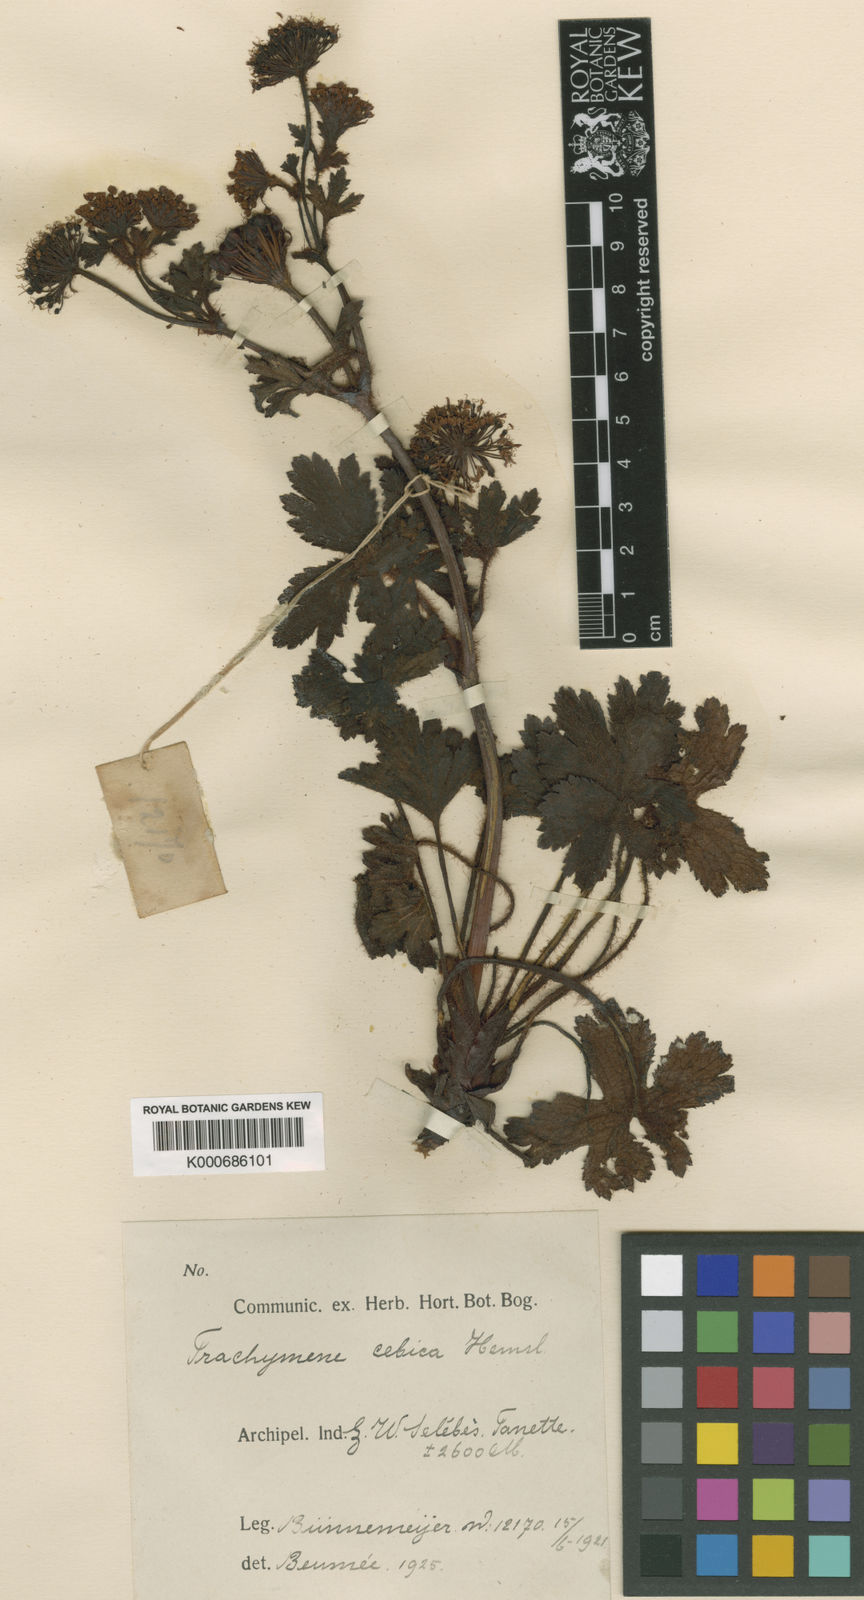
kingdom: Plantae
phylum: Tracheophyta
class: Magnoliopsida
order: Apiales
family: Araliaceae
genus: Trachymene
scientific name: Trachymene celebica
